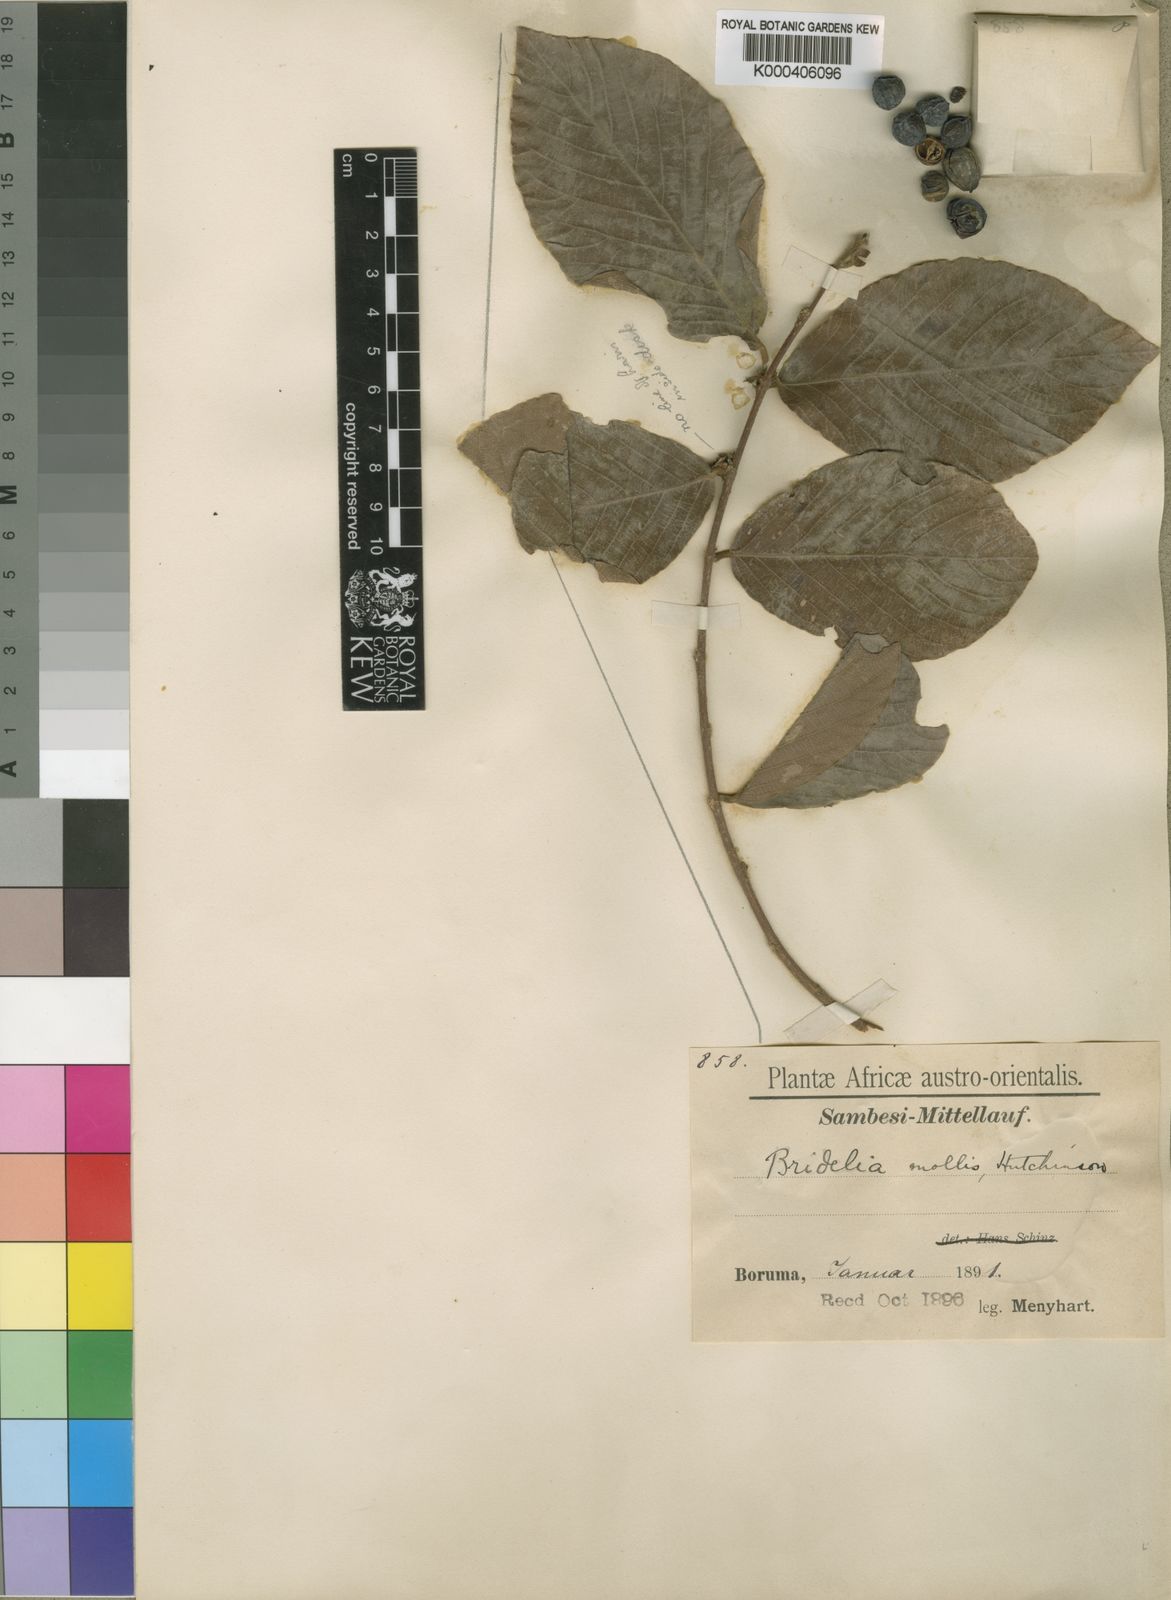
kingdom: Plantae
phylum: Tracheophyta
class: Magnoliopsida
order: Malpighiales
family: Phyllanthaceae
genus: Bridelia
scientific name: Bridelia mollis
